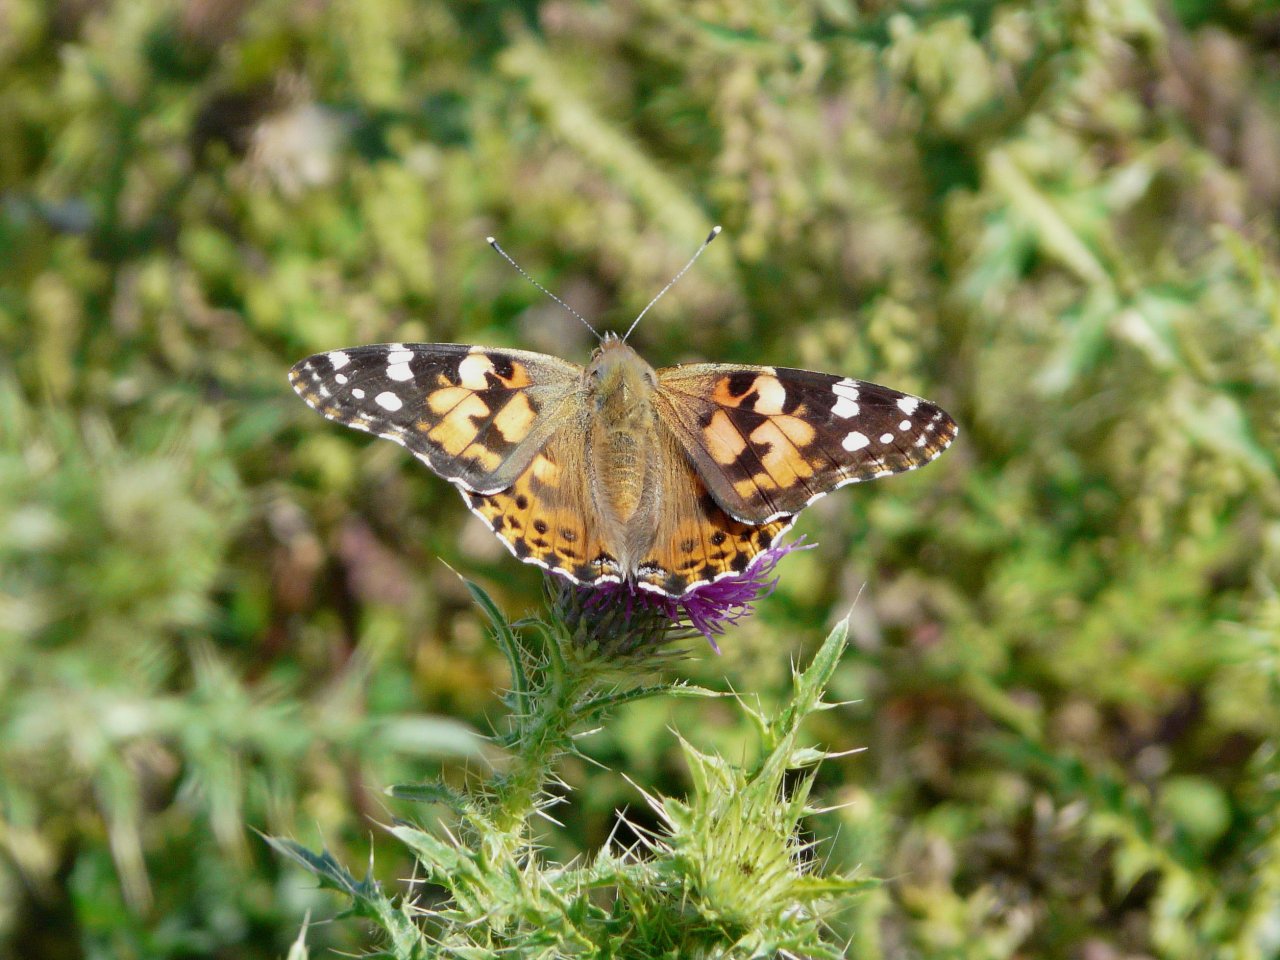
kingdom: Animalia
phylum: Arthropoda
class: Insecta
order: Lepidoptera
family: Nymphalidae
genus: Vanessa
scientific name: Vanessa cardui
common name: Painted Lady
